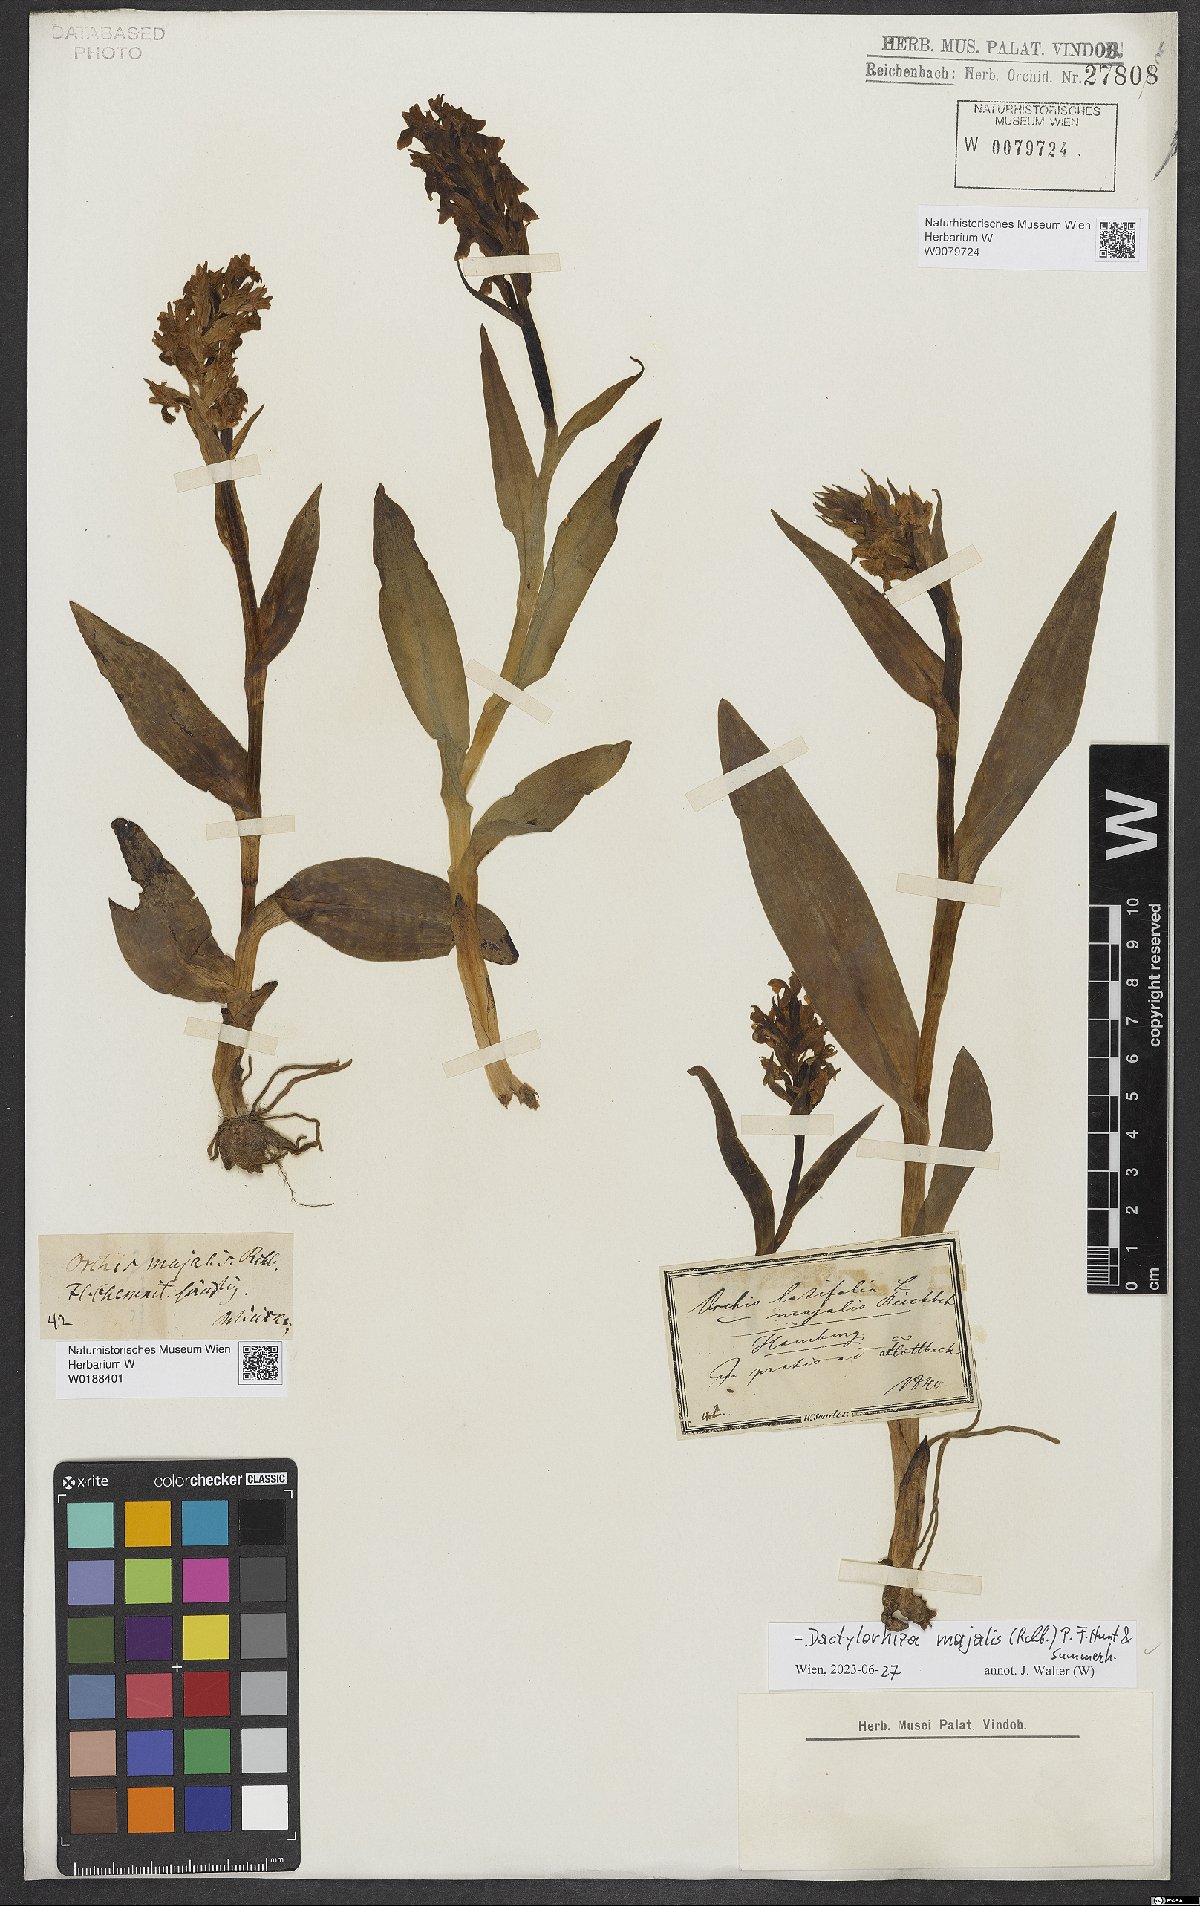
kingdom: Plantae
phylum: Tracheophyta
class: Liliopsida
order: Asparagales
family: Orchidaceae
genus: Dactylorhiza
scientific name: Dactylorhiza majalis
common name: Marsh orchid
